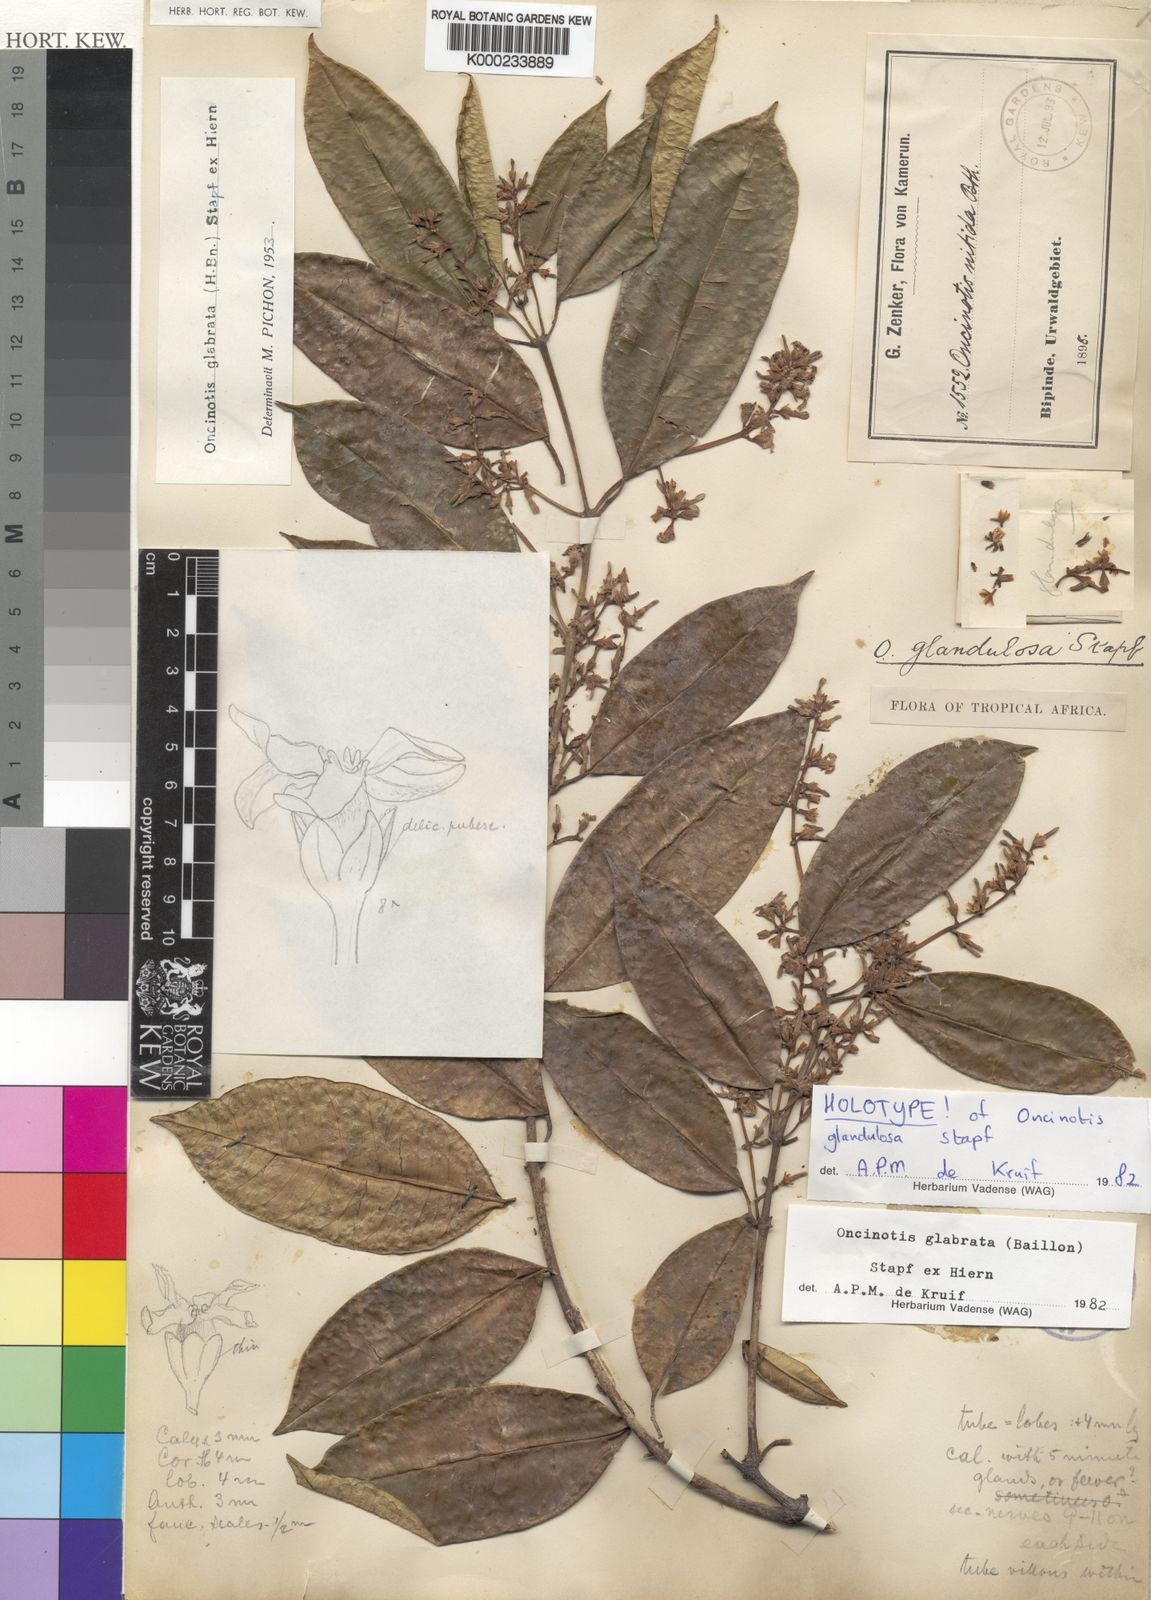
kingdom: Plantae
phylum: Tracheophyta
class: Magnoliopsida
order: Gentianales
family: Apocynaceae
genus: Oncinotis
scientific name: Oncinotis glabrata
